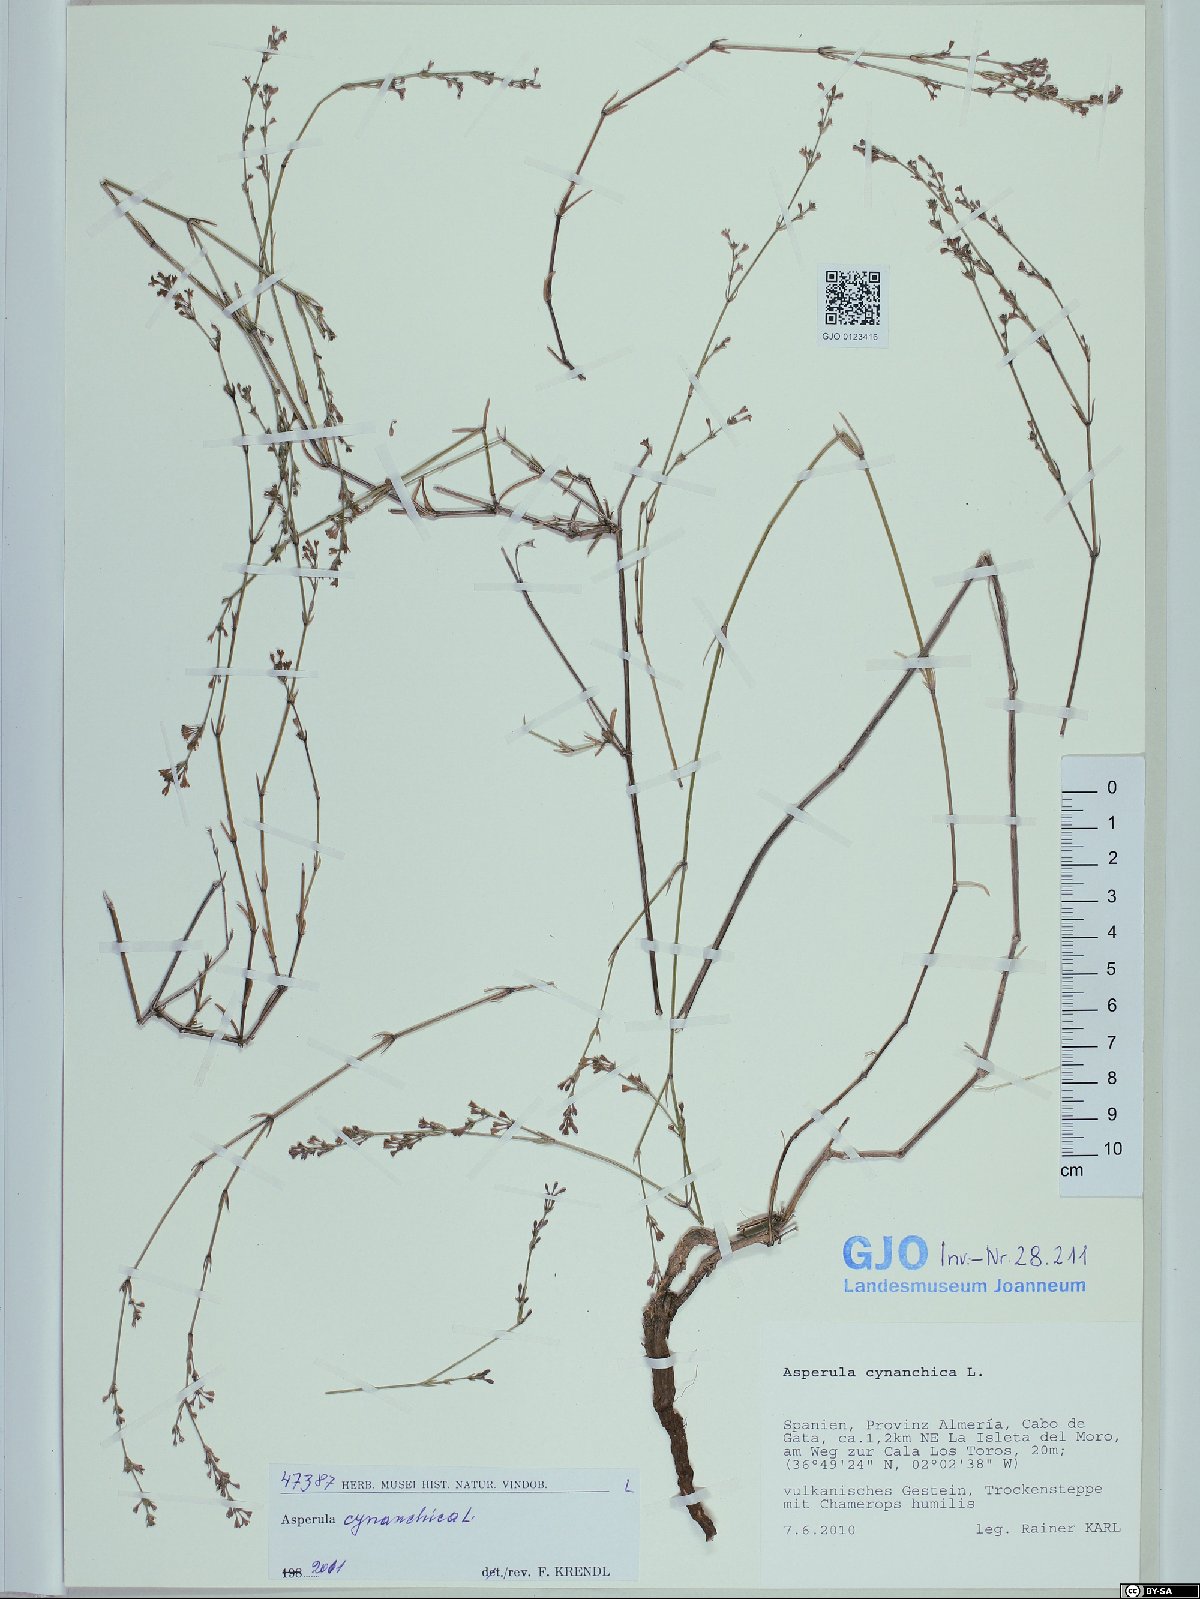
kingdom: Plantae
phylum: Tracheophyta
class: Magnoliopsida
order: Gentianales
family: Rubiaceae
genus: Cynanchica
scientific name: Cynanchica pyrenaica
